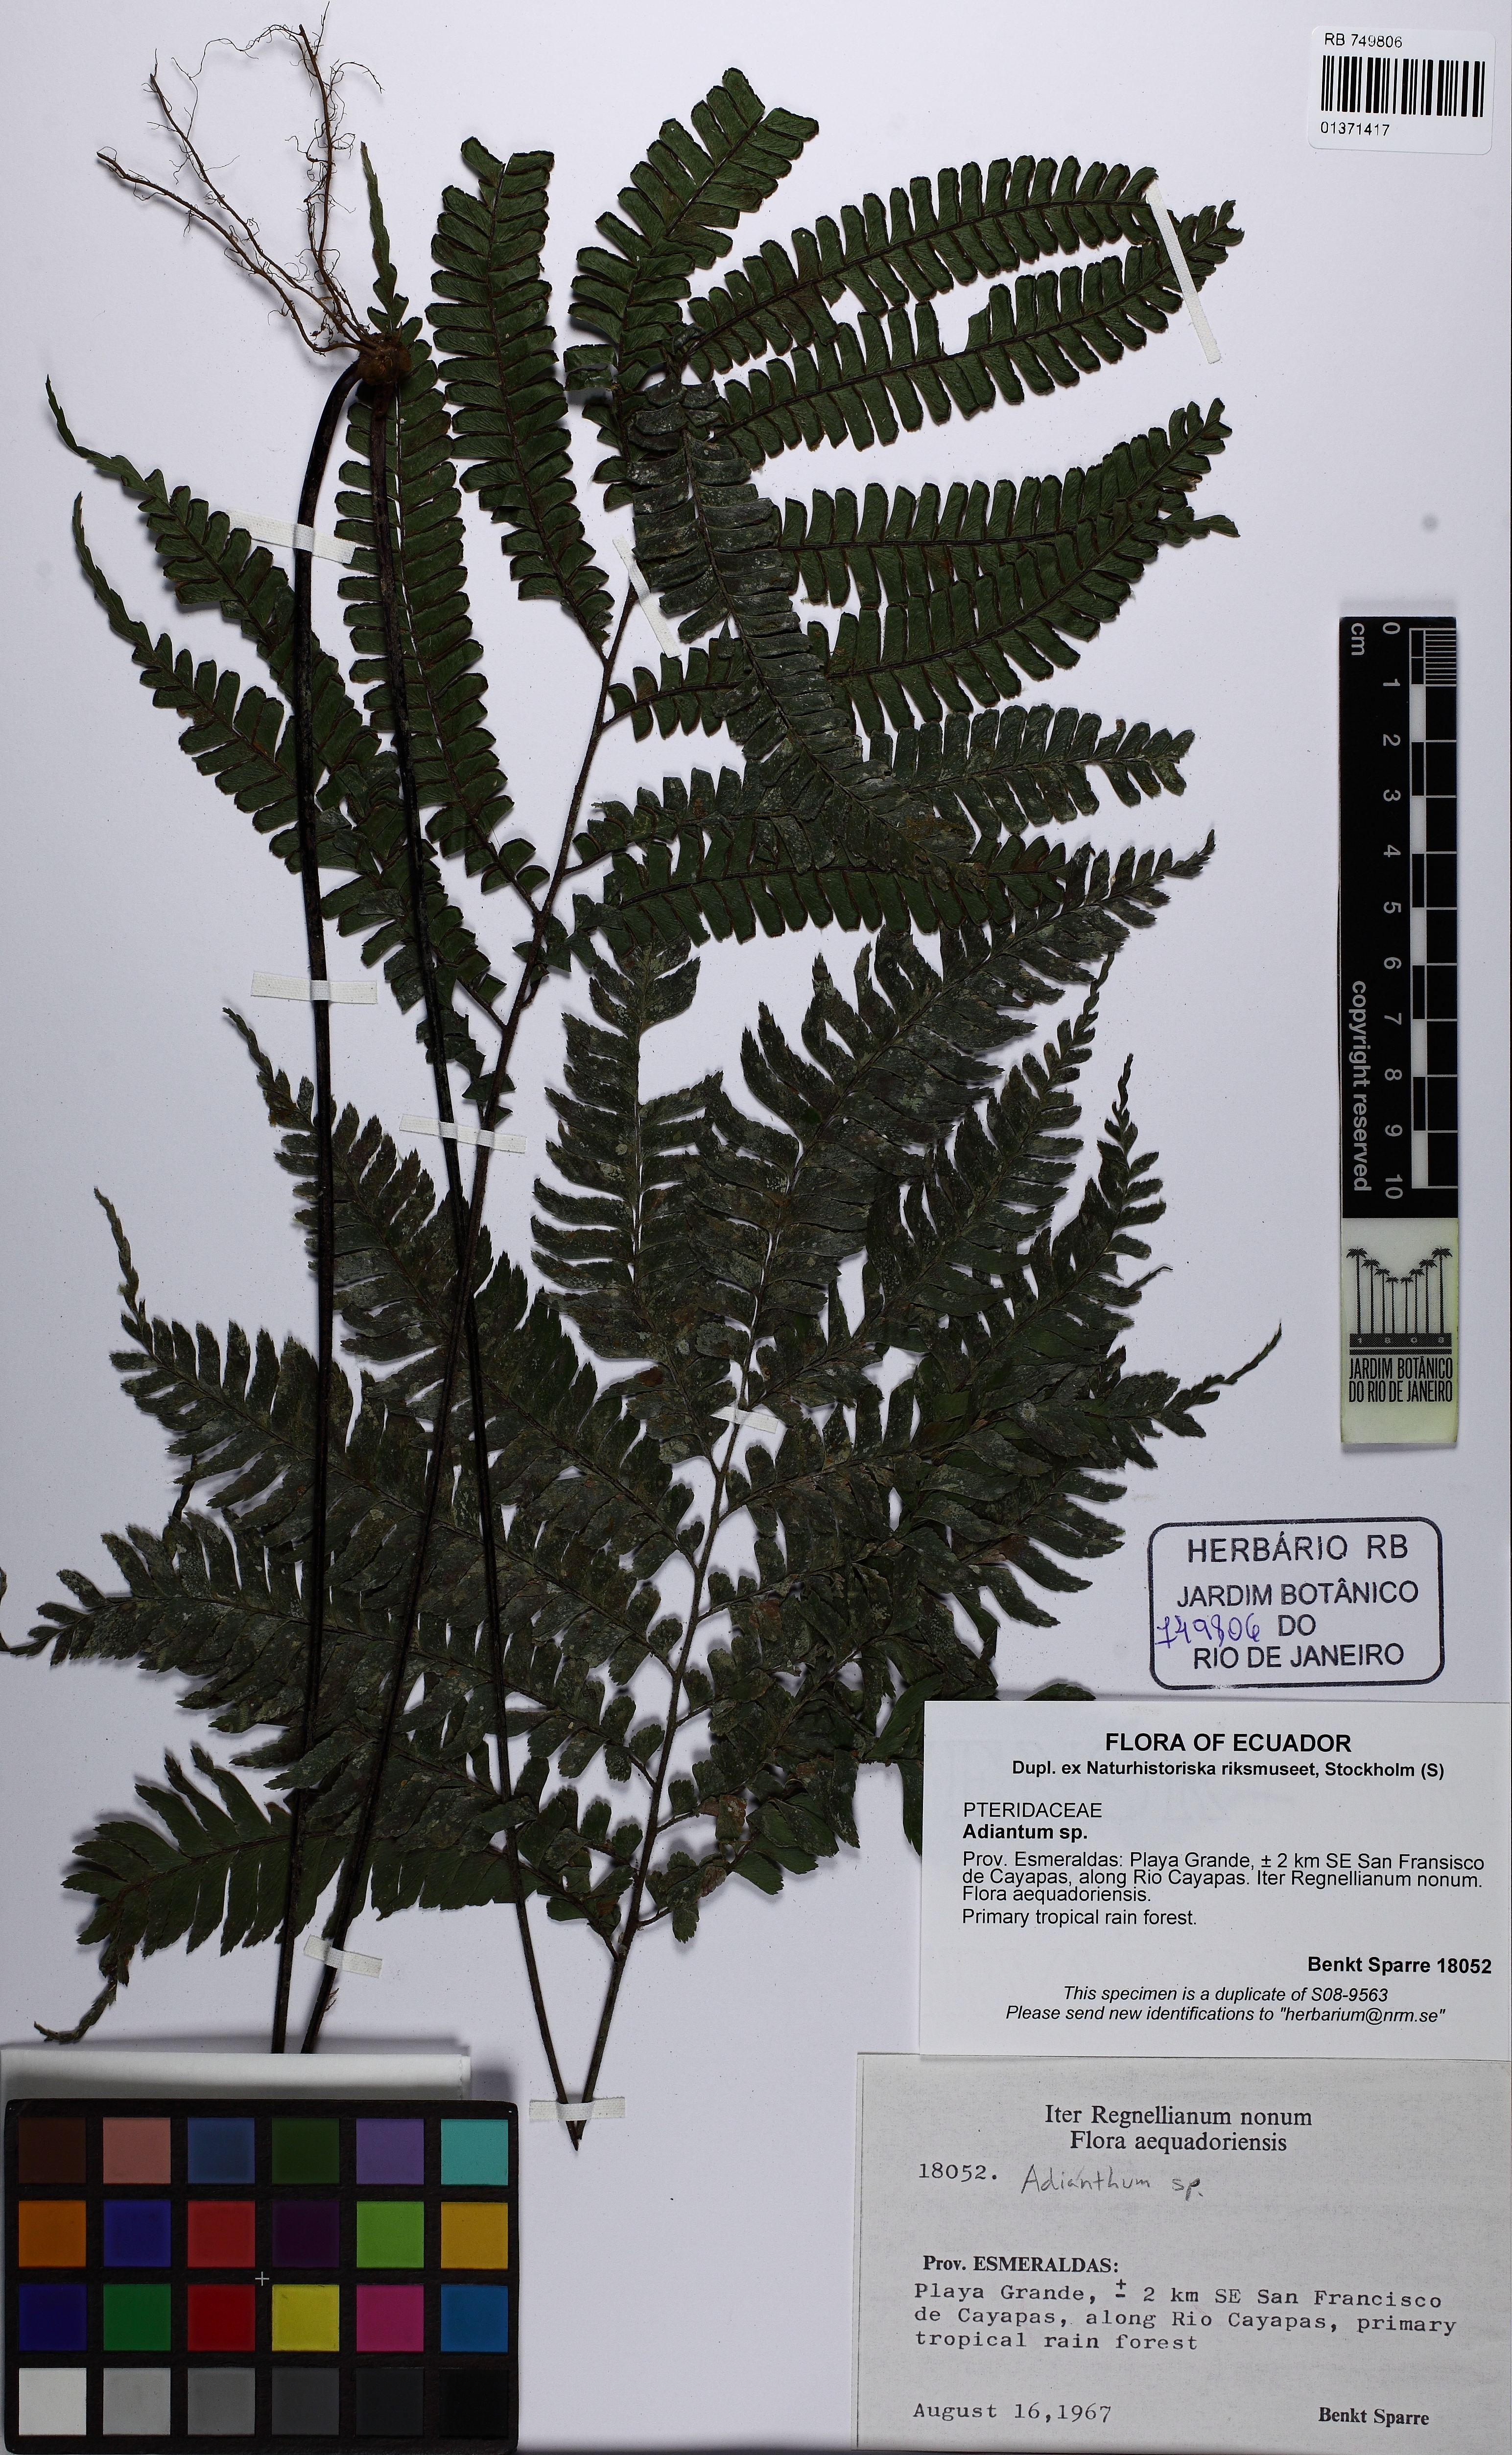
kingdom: Plantae
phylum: Tracheophyta
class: Polypodiopsida
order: Polypodiales
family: Pteridaceae
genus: Adiantum
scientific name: Adiantum
